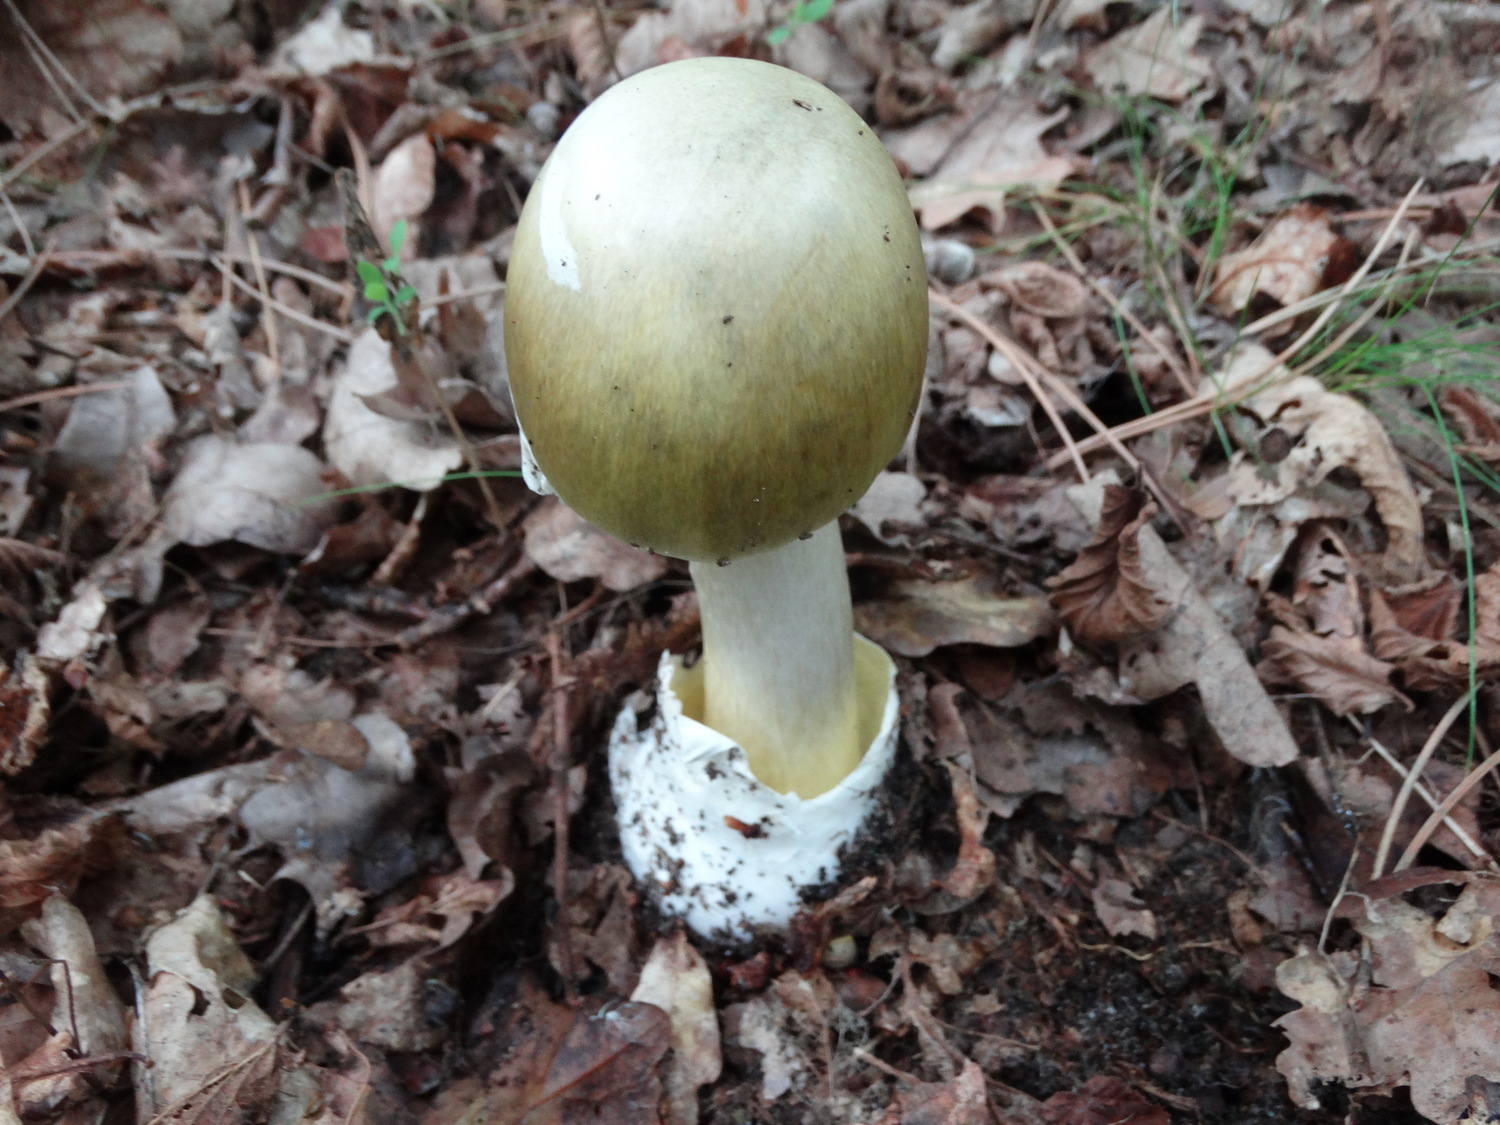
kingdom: Fungi
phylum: Basidiomycota
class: Agaricomycetes
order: Agaricales
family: Amanitaceae
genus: Amanita
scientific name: Amanita phalloides
